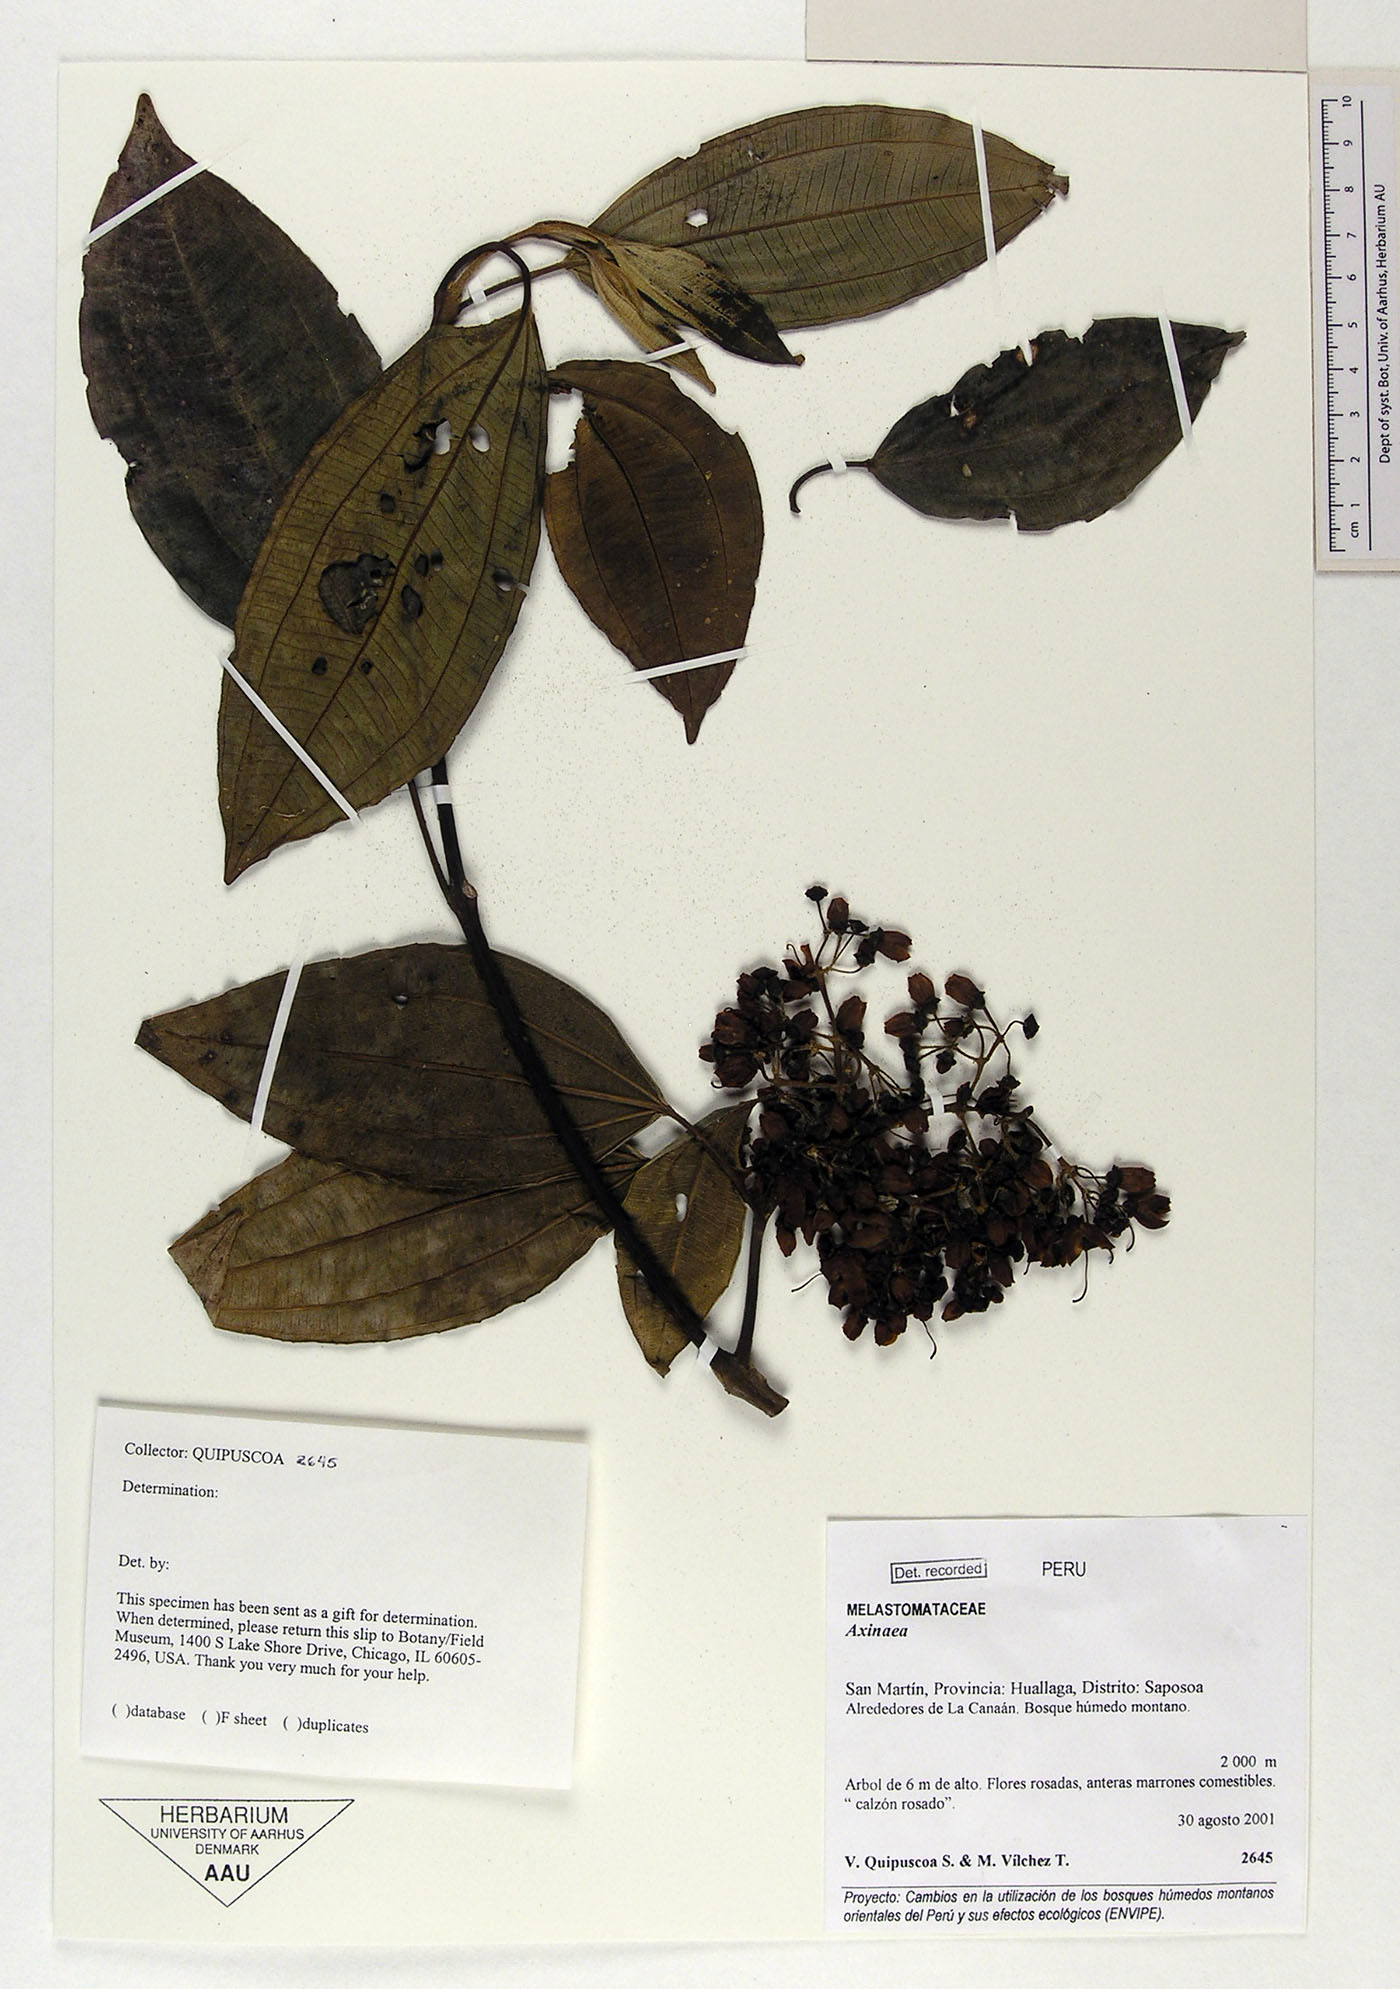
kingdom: Plantae
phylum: Tracheophyta
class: Magnoliopsida
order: Myrtales
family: Melastomataceae
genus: Axinaea
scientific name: Axinaea
